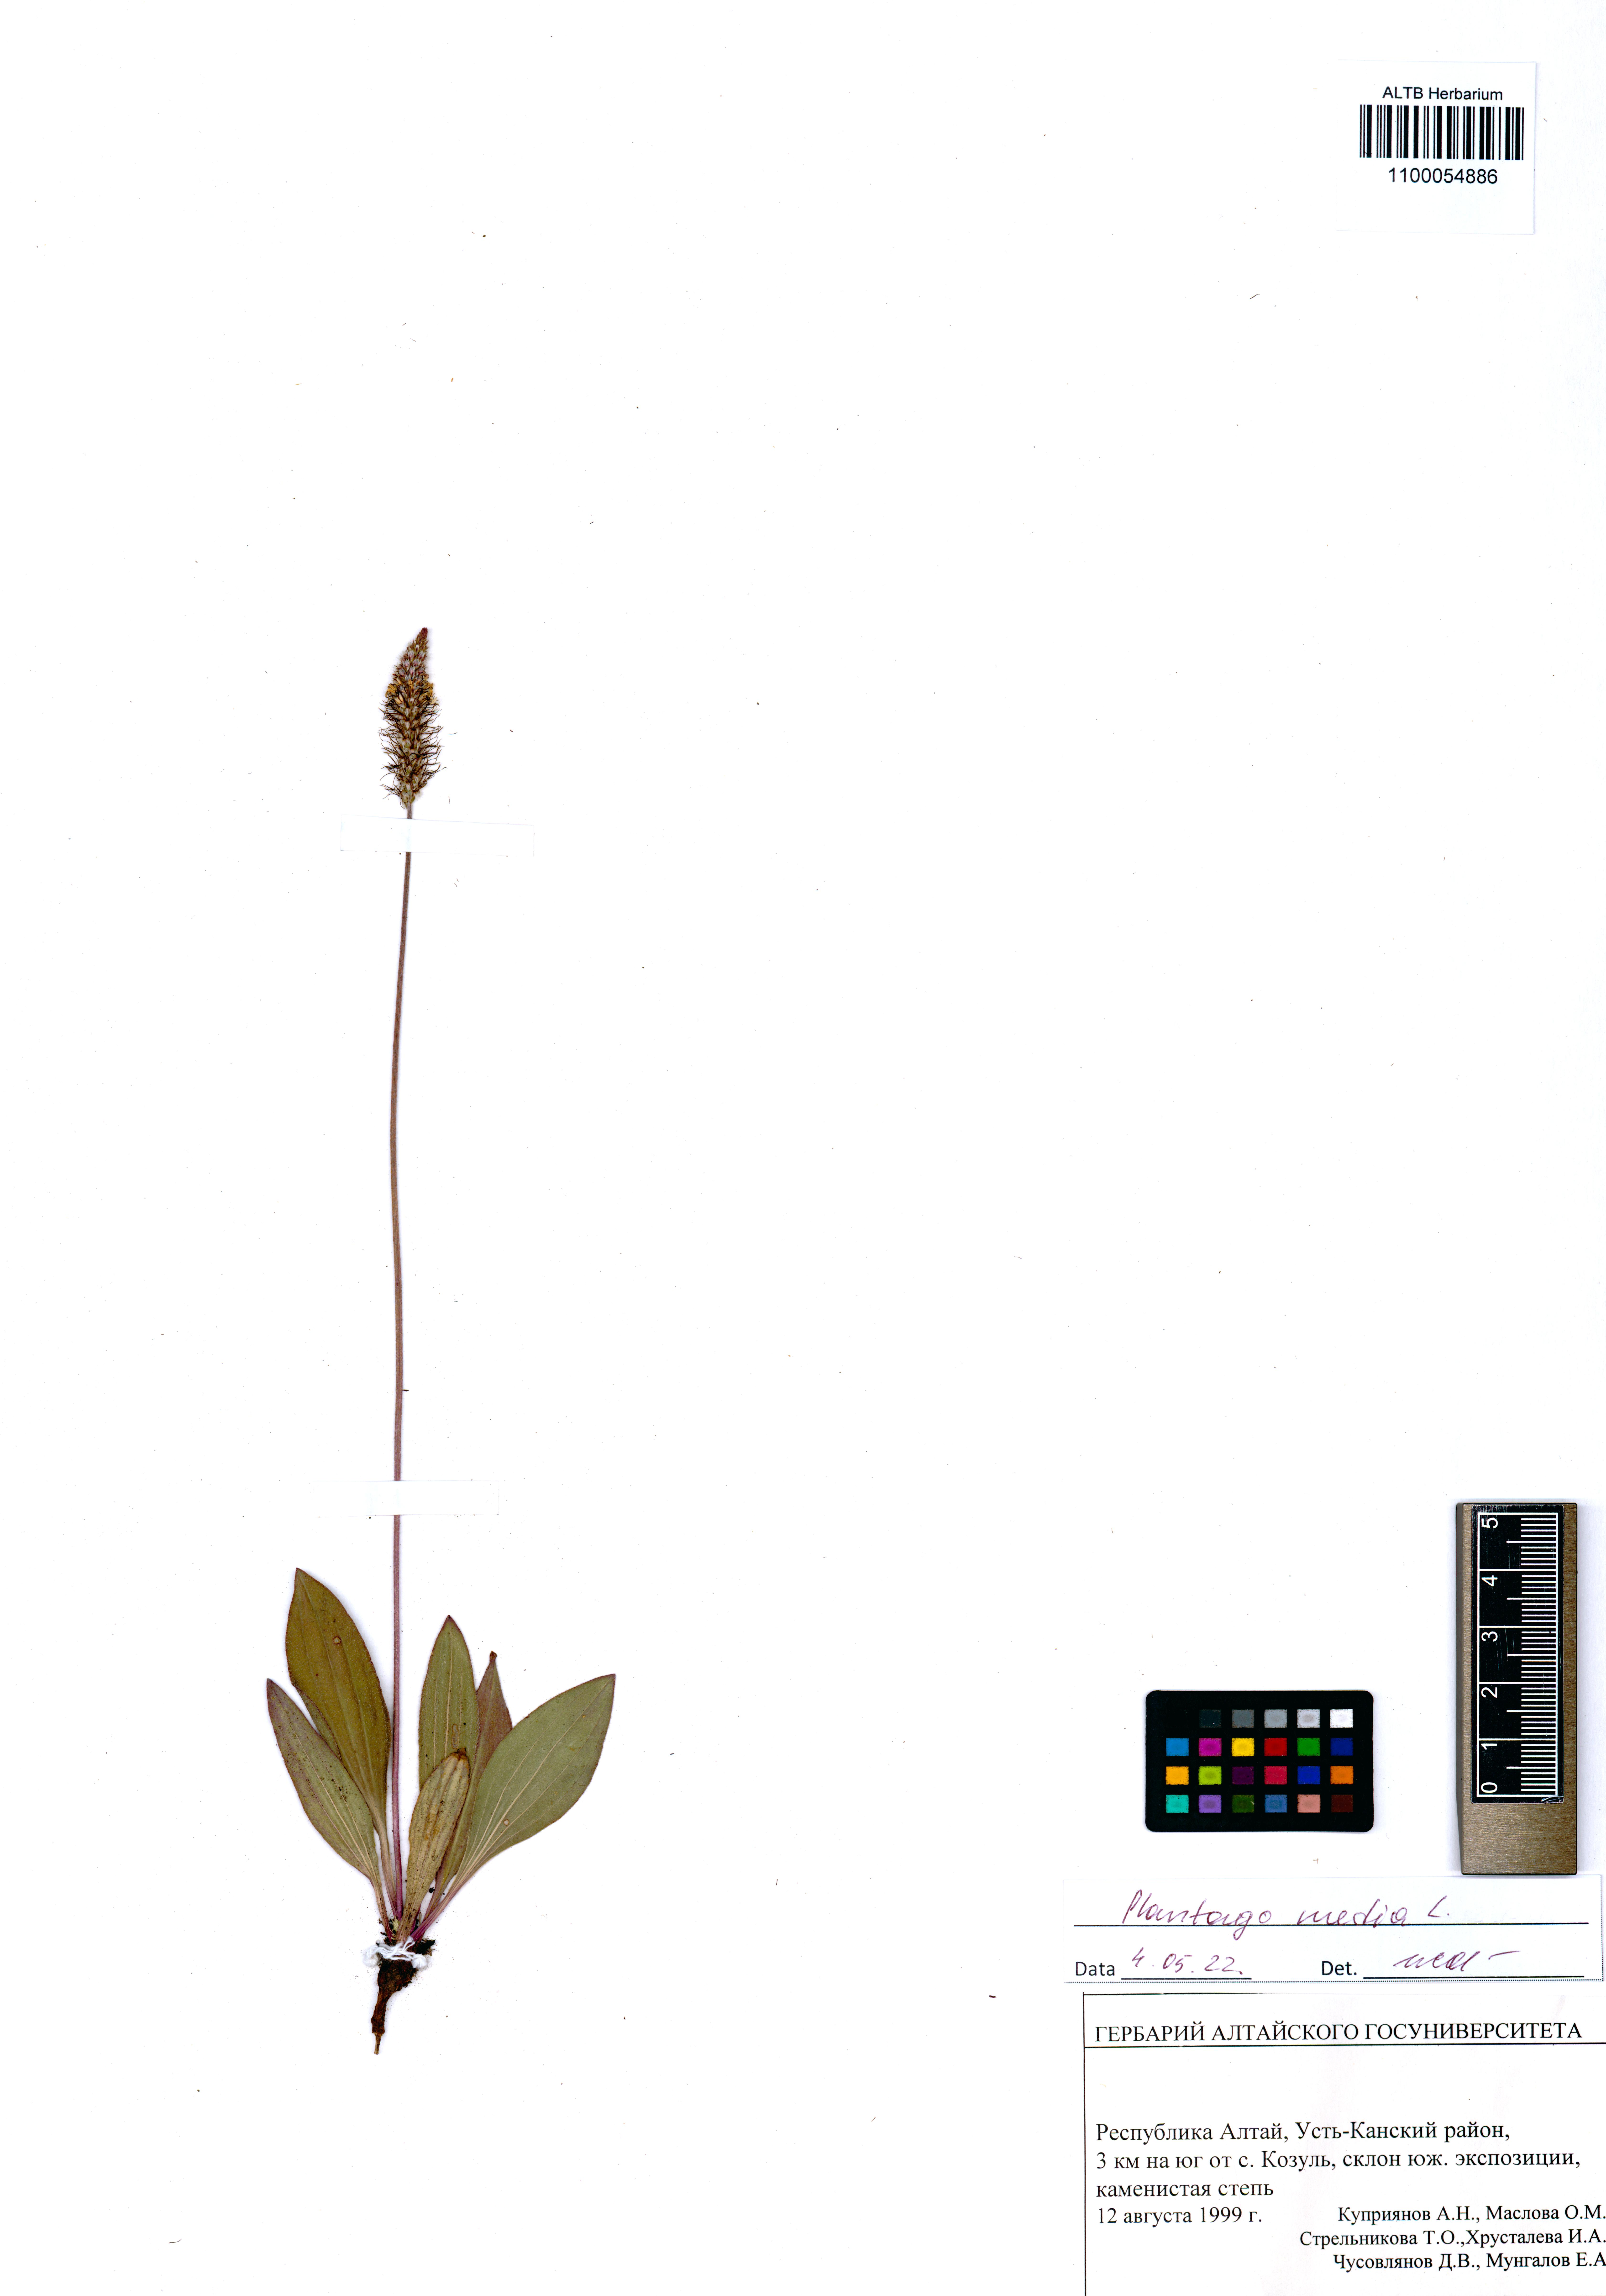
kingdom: Plantae
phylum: Tracheophyta
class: Magnoliopsida
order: Lamiales
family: Plantaginaceae
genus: Plantago
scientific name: Plantago media
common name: Hoary plantain
